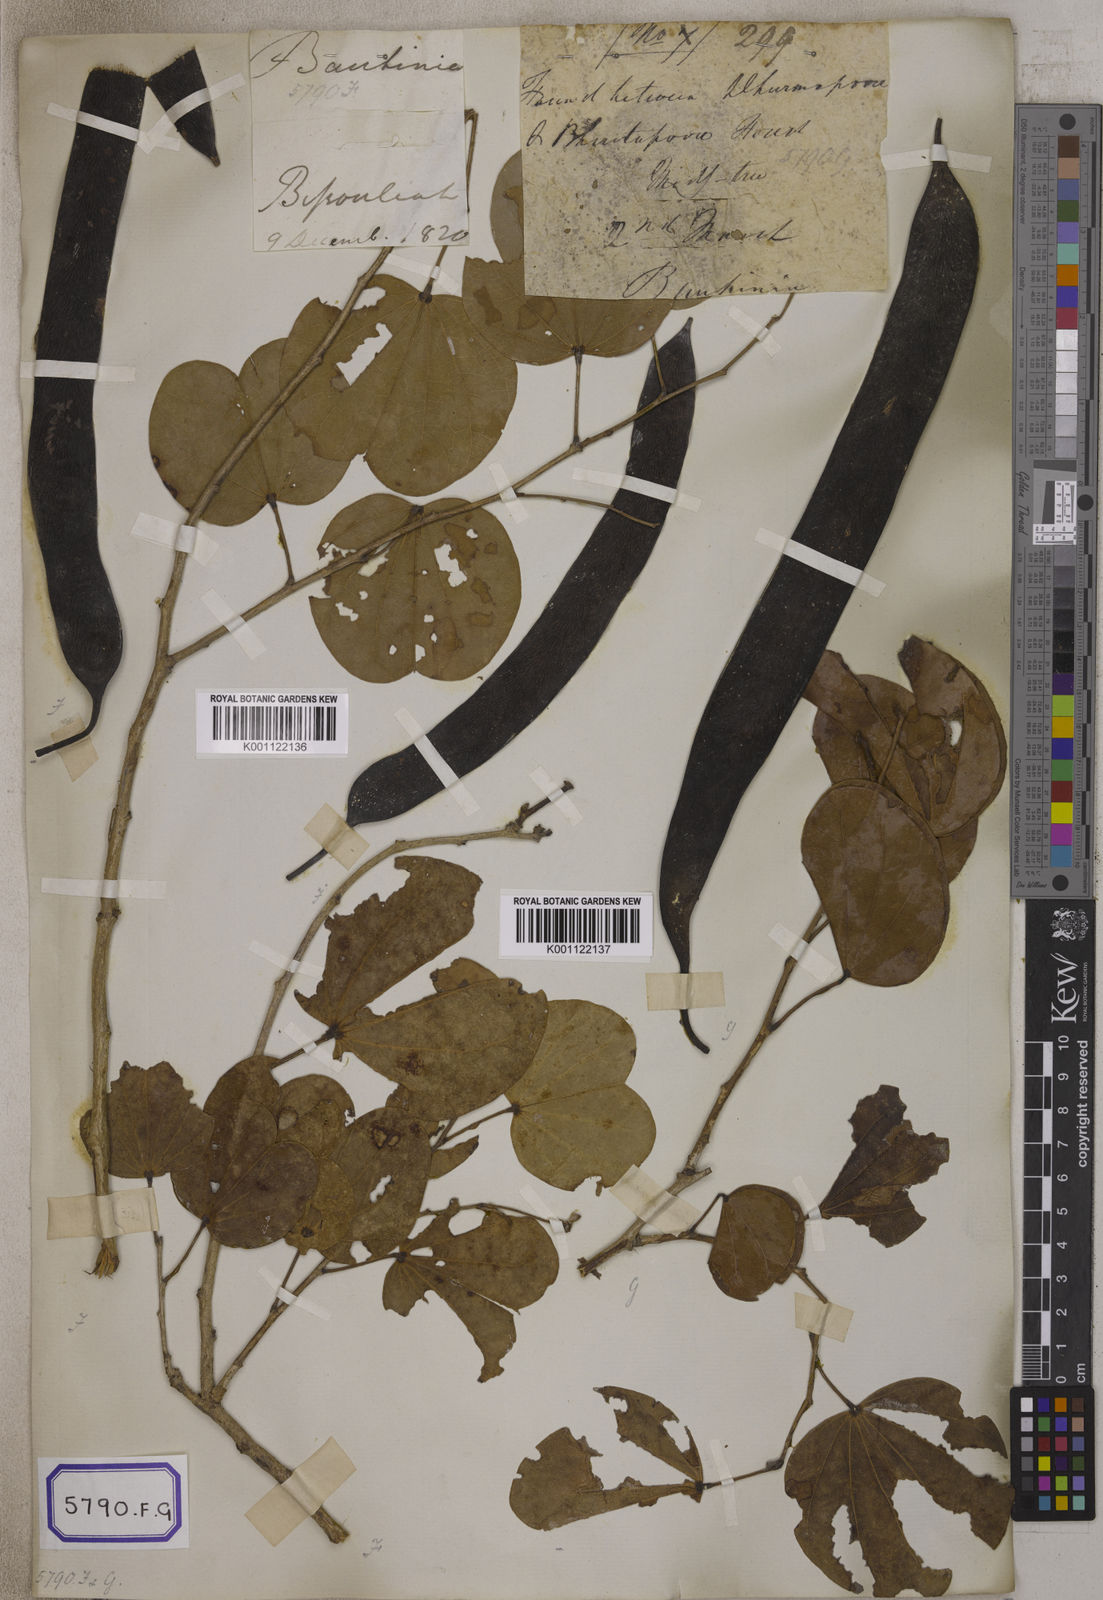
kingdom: Plantae
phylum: Tracheophyta
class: Magnoliopsida
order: Fabales
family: Fabaceae
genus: Bauhinia
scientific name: Bauhinia tomentosa
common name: Bell bauhinia
